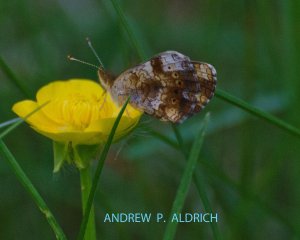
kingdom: Animalia
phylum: Arthropoda
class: Insecta
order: Lepidoptera
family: Nymphalidae
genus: Chlosyne
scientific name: Chlosyne nycteis
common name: Silvery Checkerspot
